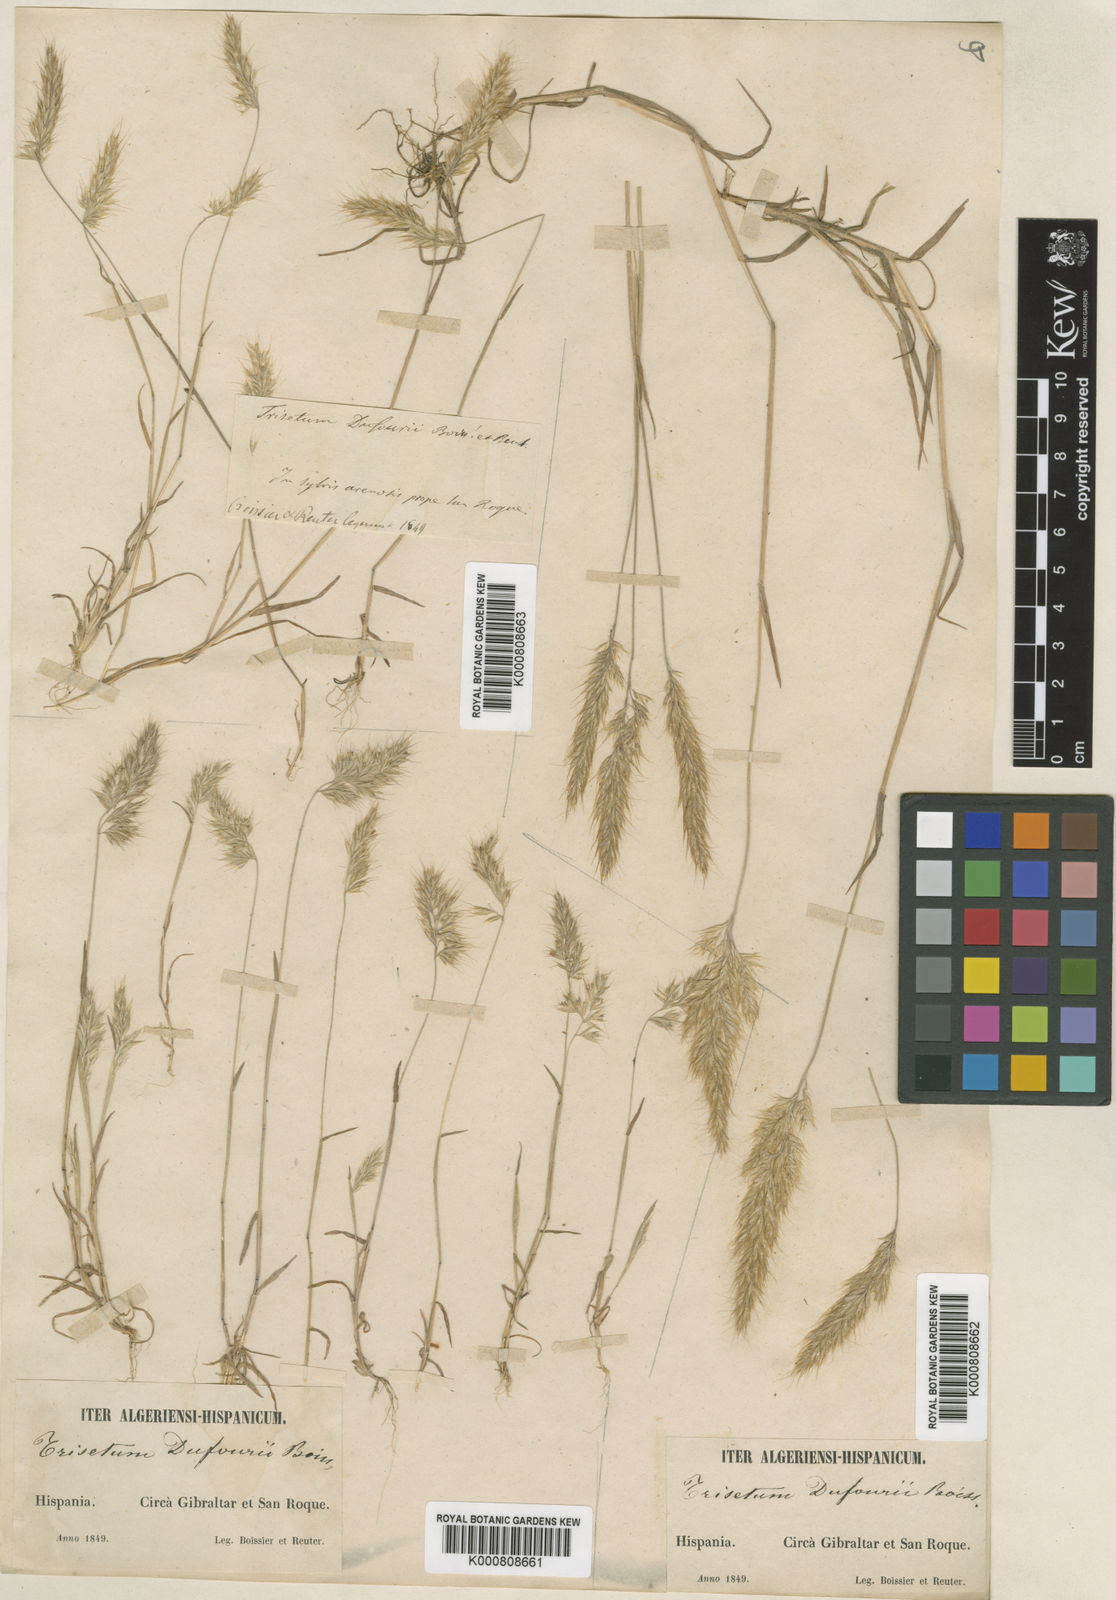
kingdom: Plantae
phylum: Tracheophyta
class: Liliopsida
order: Poales
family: Poaceae
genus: Trisetaria
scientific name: Trisetaria dufourei
